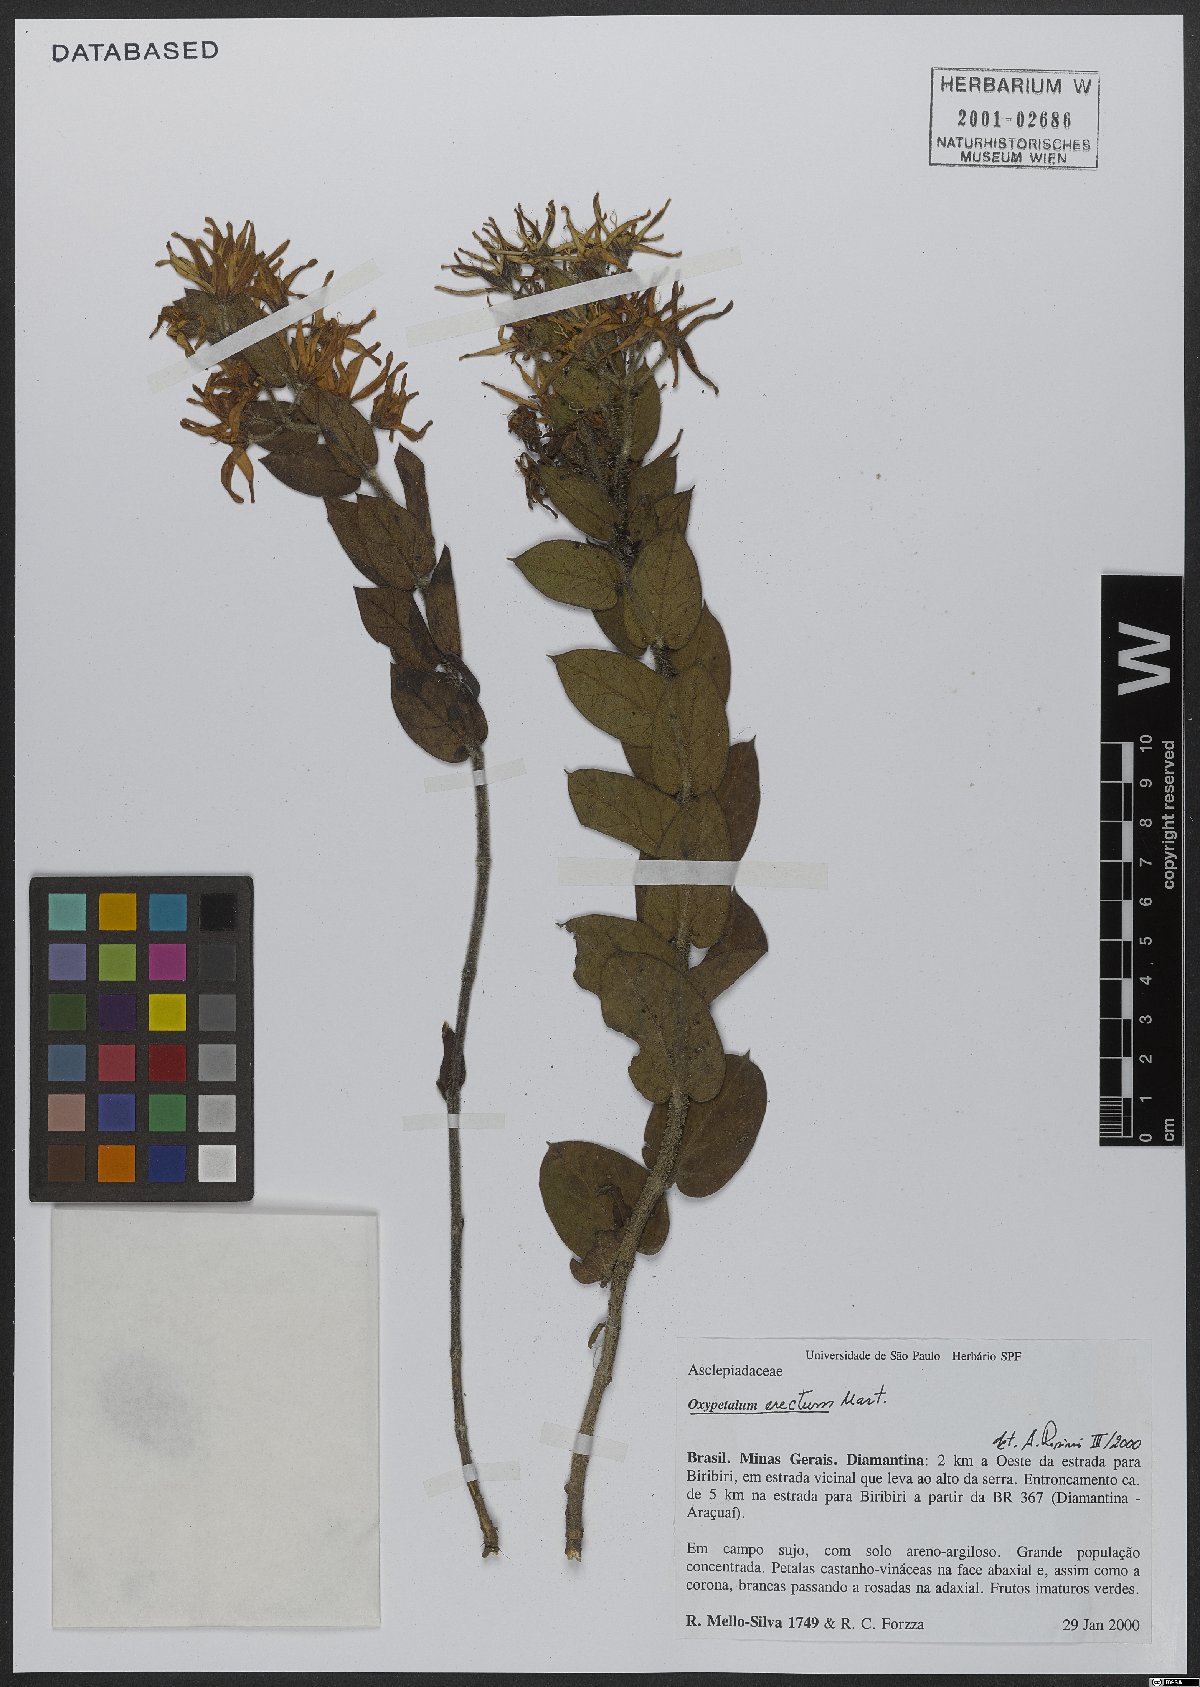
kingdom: Plantae
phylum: Tracheophyta
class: Magnoliopsida
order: Gentianales
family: Apocynaceae
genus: Oxypetalum
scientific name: Oxypetalum erectum
